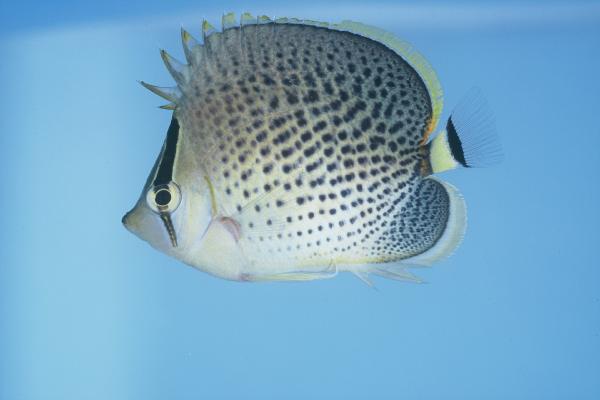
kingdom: Animalia
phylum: Chordata
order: Perciformes
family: Chaetodontidae
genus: Chaetodon
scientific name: Chaetodon guttatissimus
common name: Spotted butterflyfish
